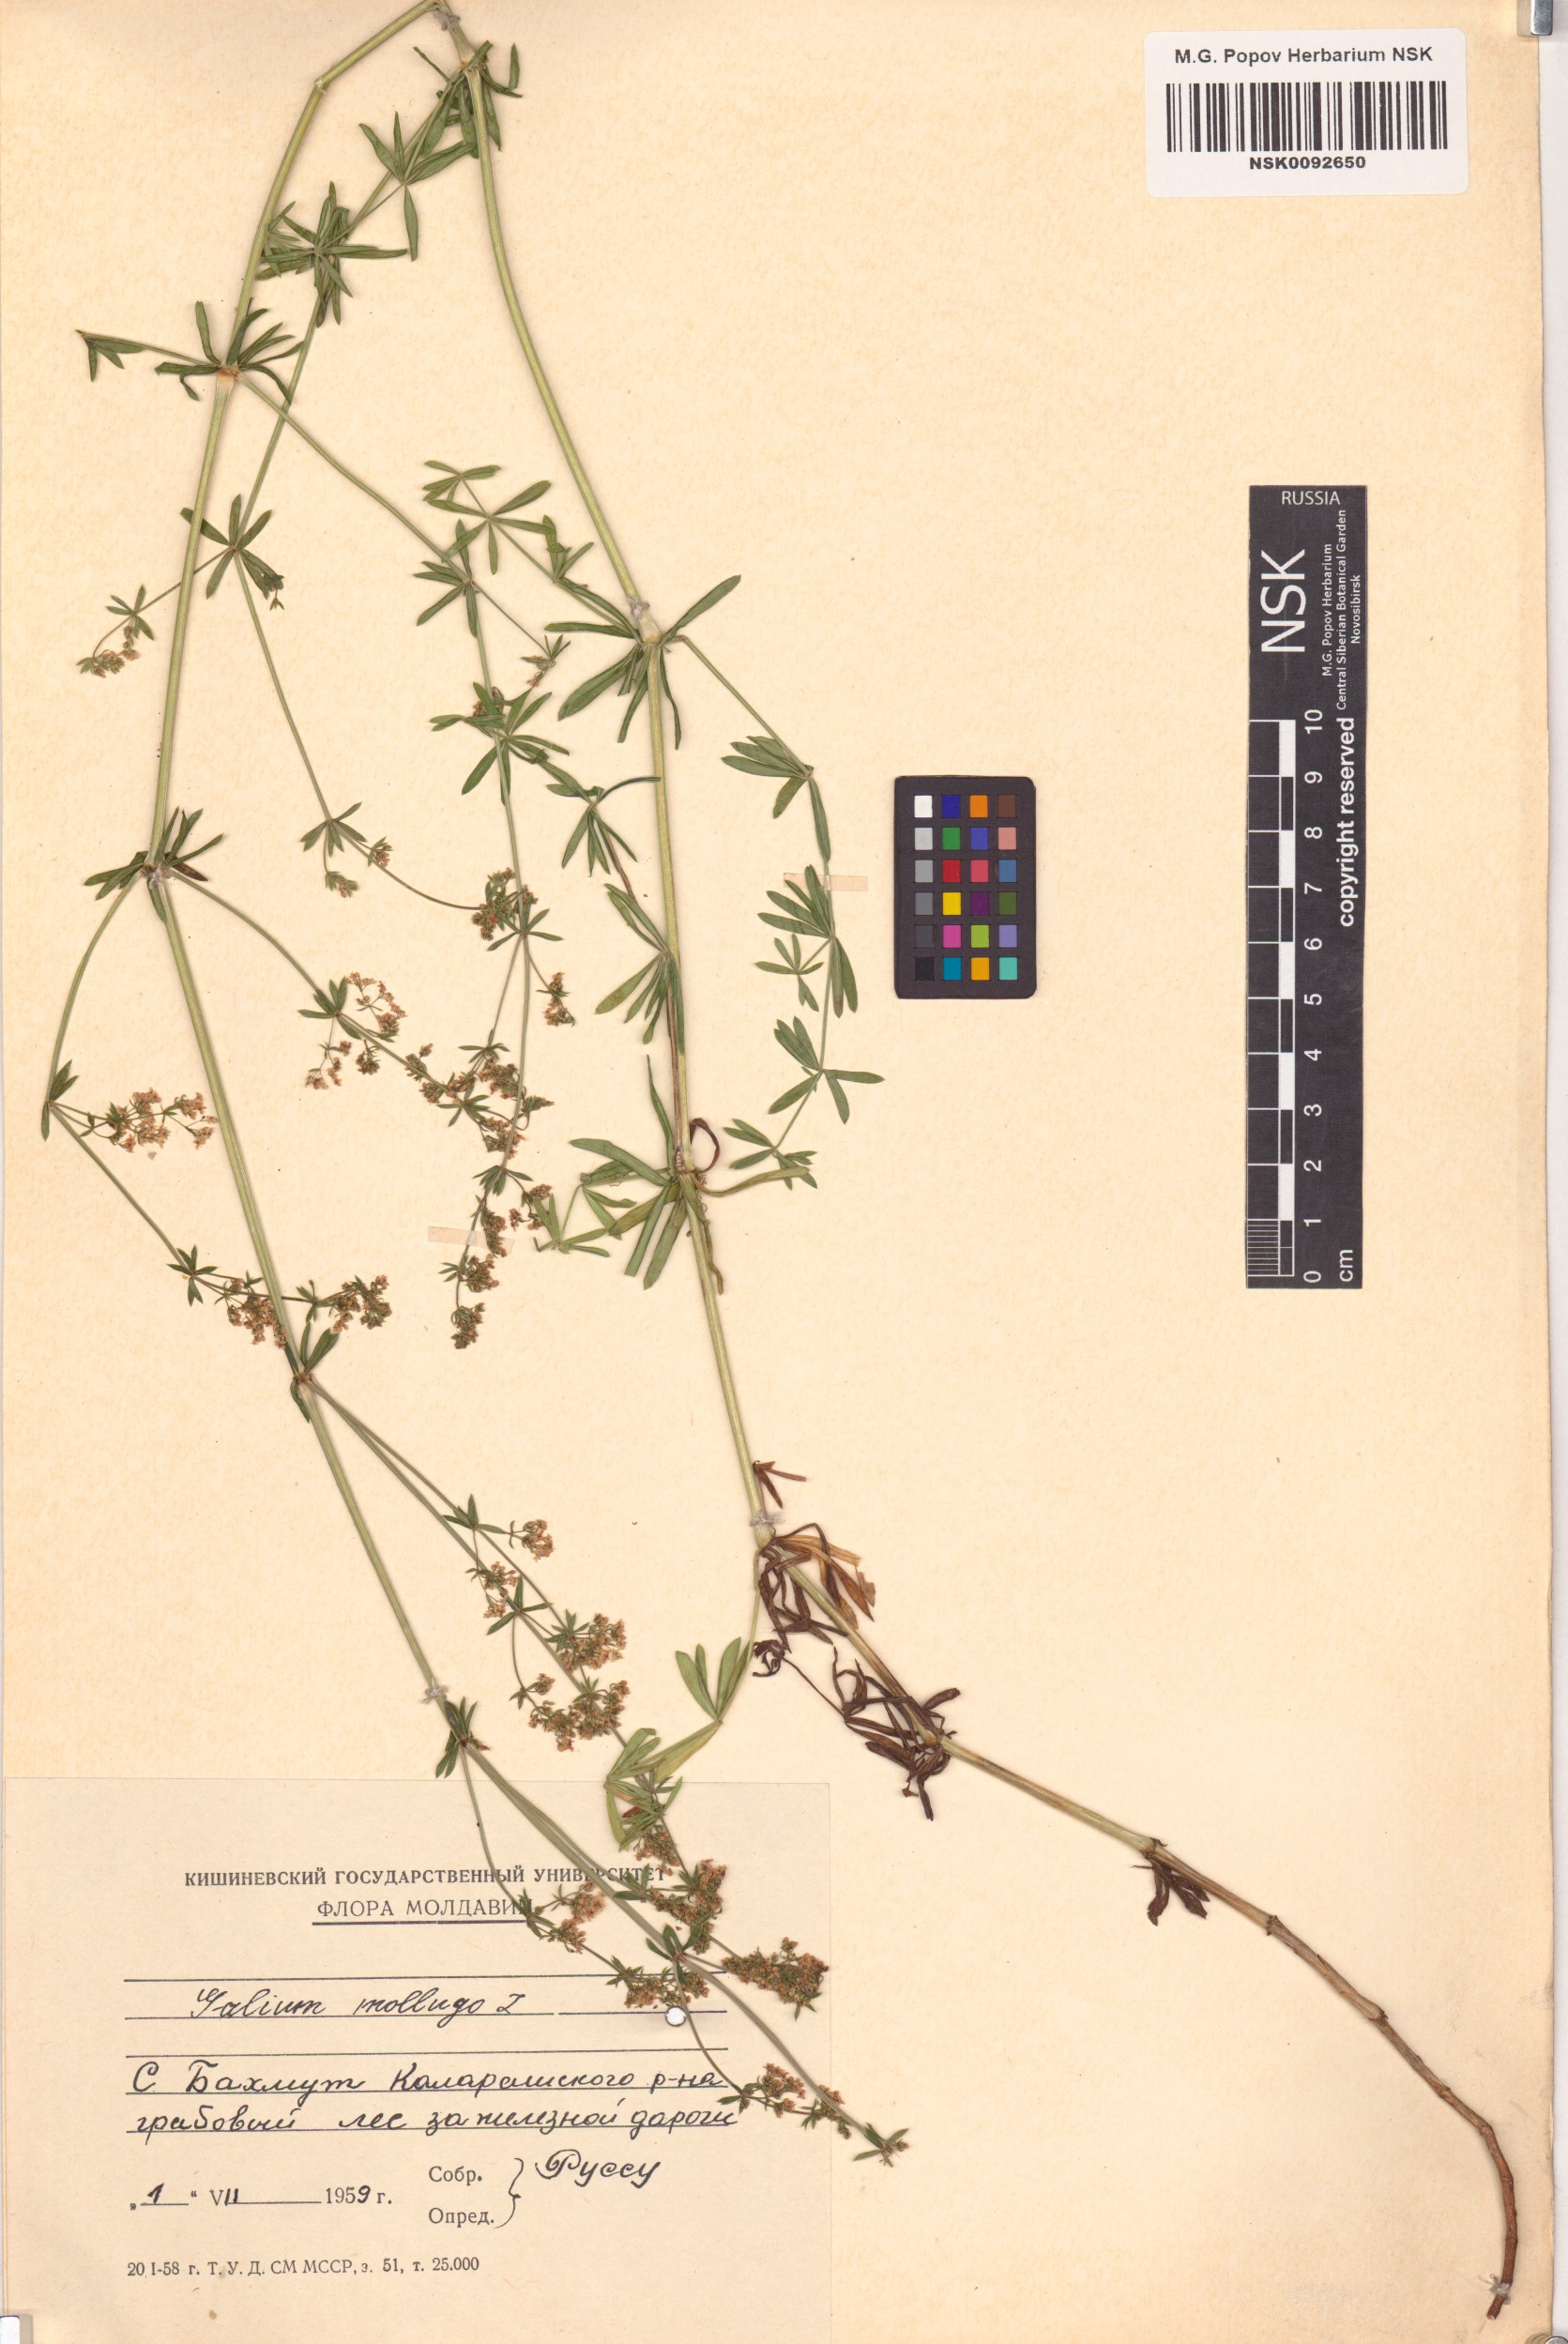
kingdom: Plantae
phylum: Tracheophyta
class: Magnoliopsida
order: Gentianales
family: Rubiaceae
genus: Galium
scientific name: Galium mollugo
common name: Hedge bedstraw
